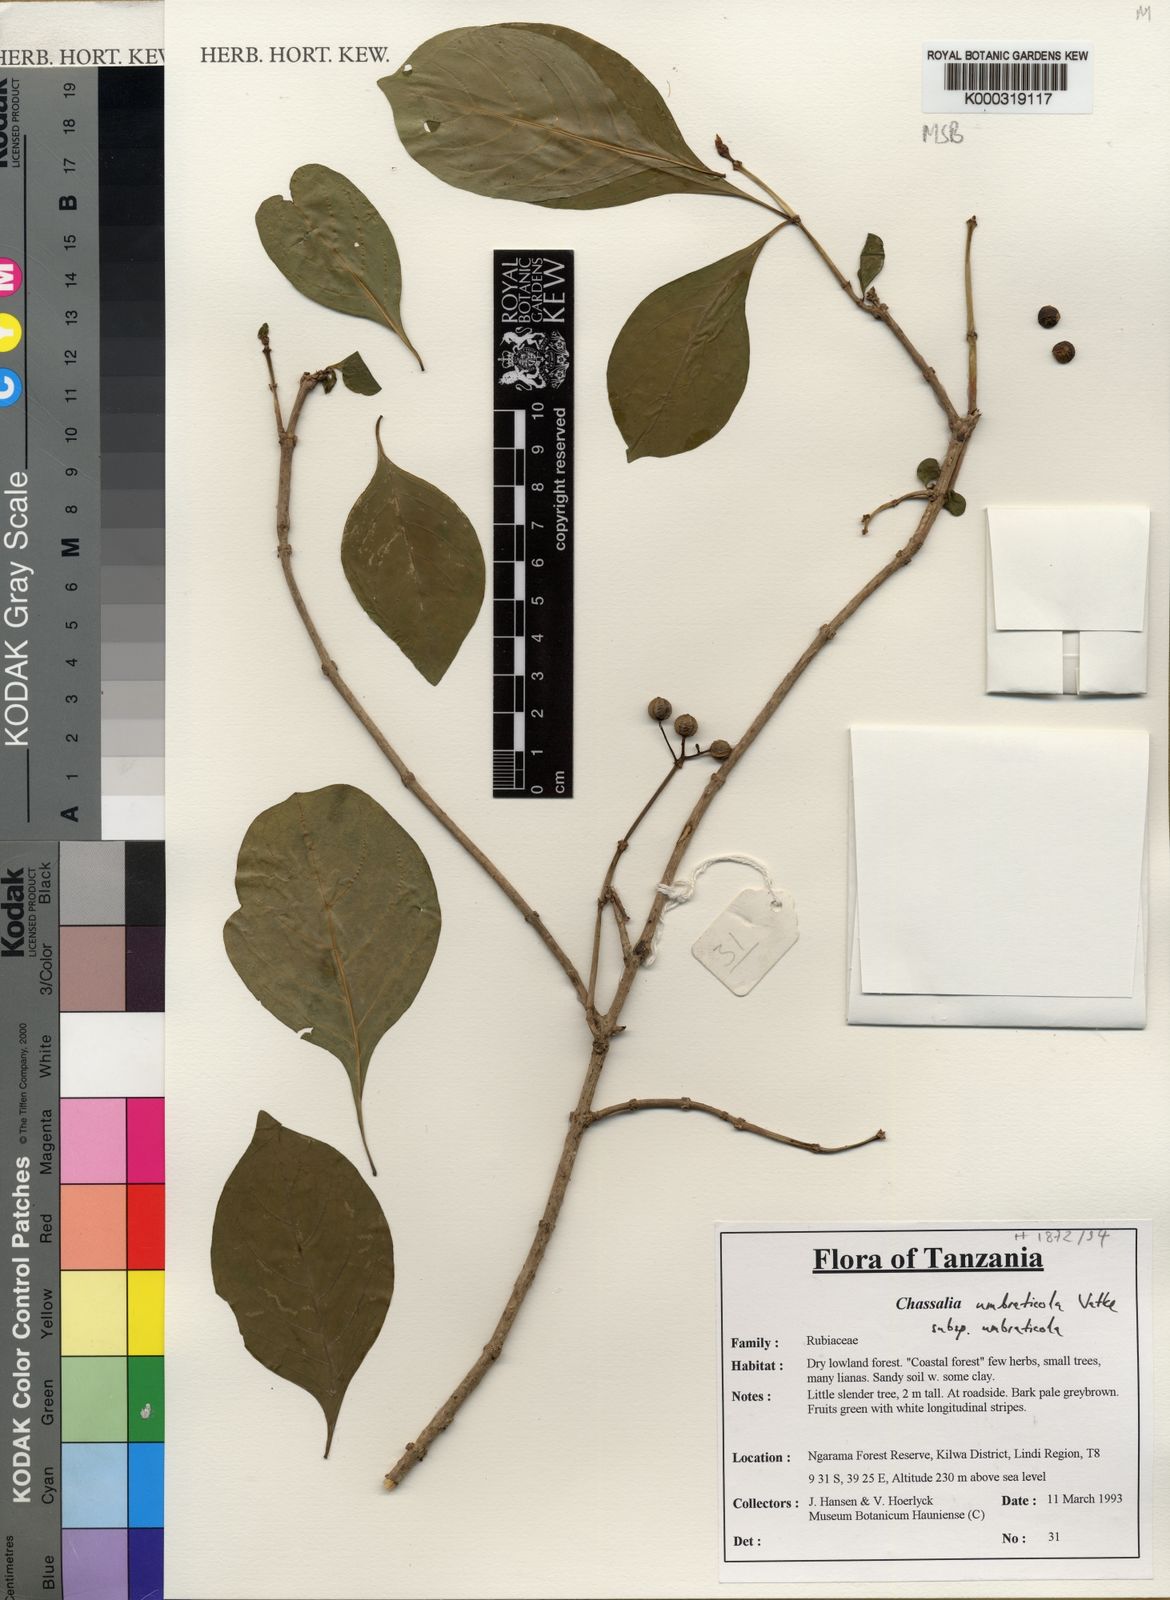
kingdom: Plantae
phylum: Tracheophyta
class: Magnoliopsida
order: Gentianales
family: Rubiaceae
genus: Chassalia
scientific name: Chassalia umbraticola
